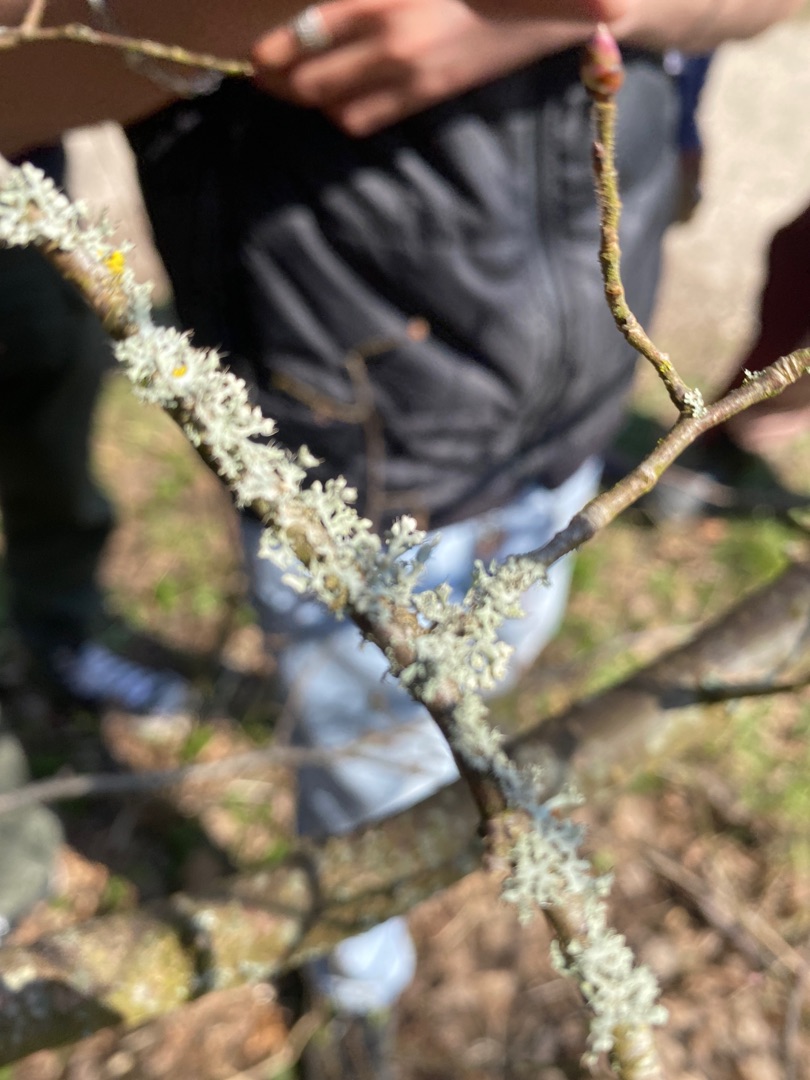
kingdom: Fungi
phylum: Ascomycota
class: Lecanoromycetes
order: Caliciales
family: Physciaceae
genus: Physcia
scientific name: Physcia adscendens
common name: Hætte-rosetlav
